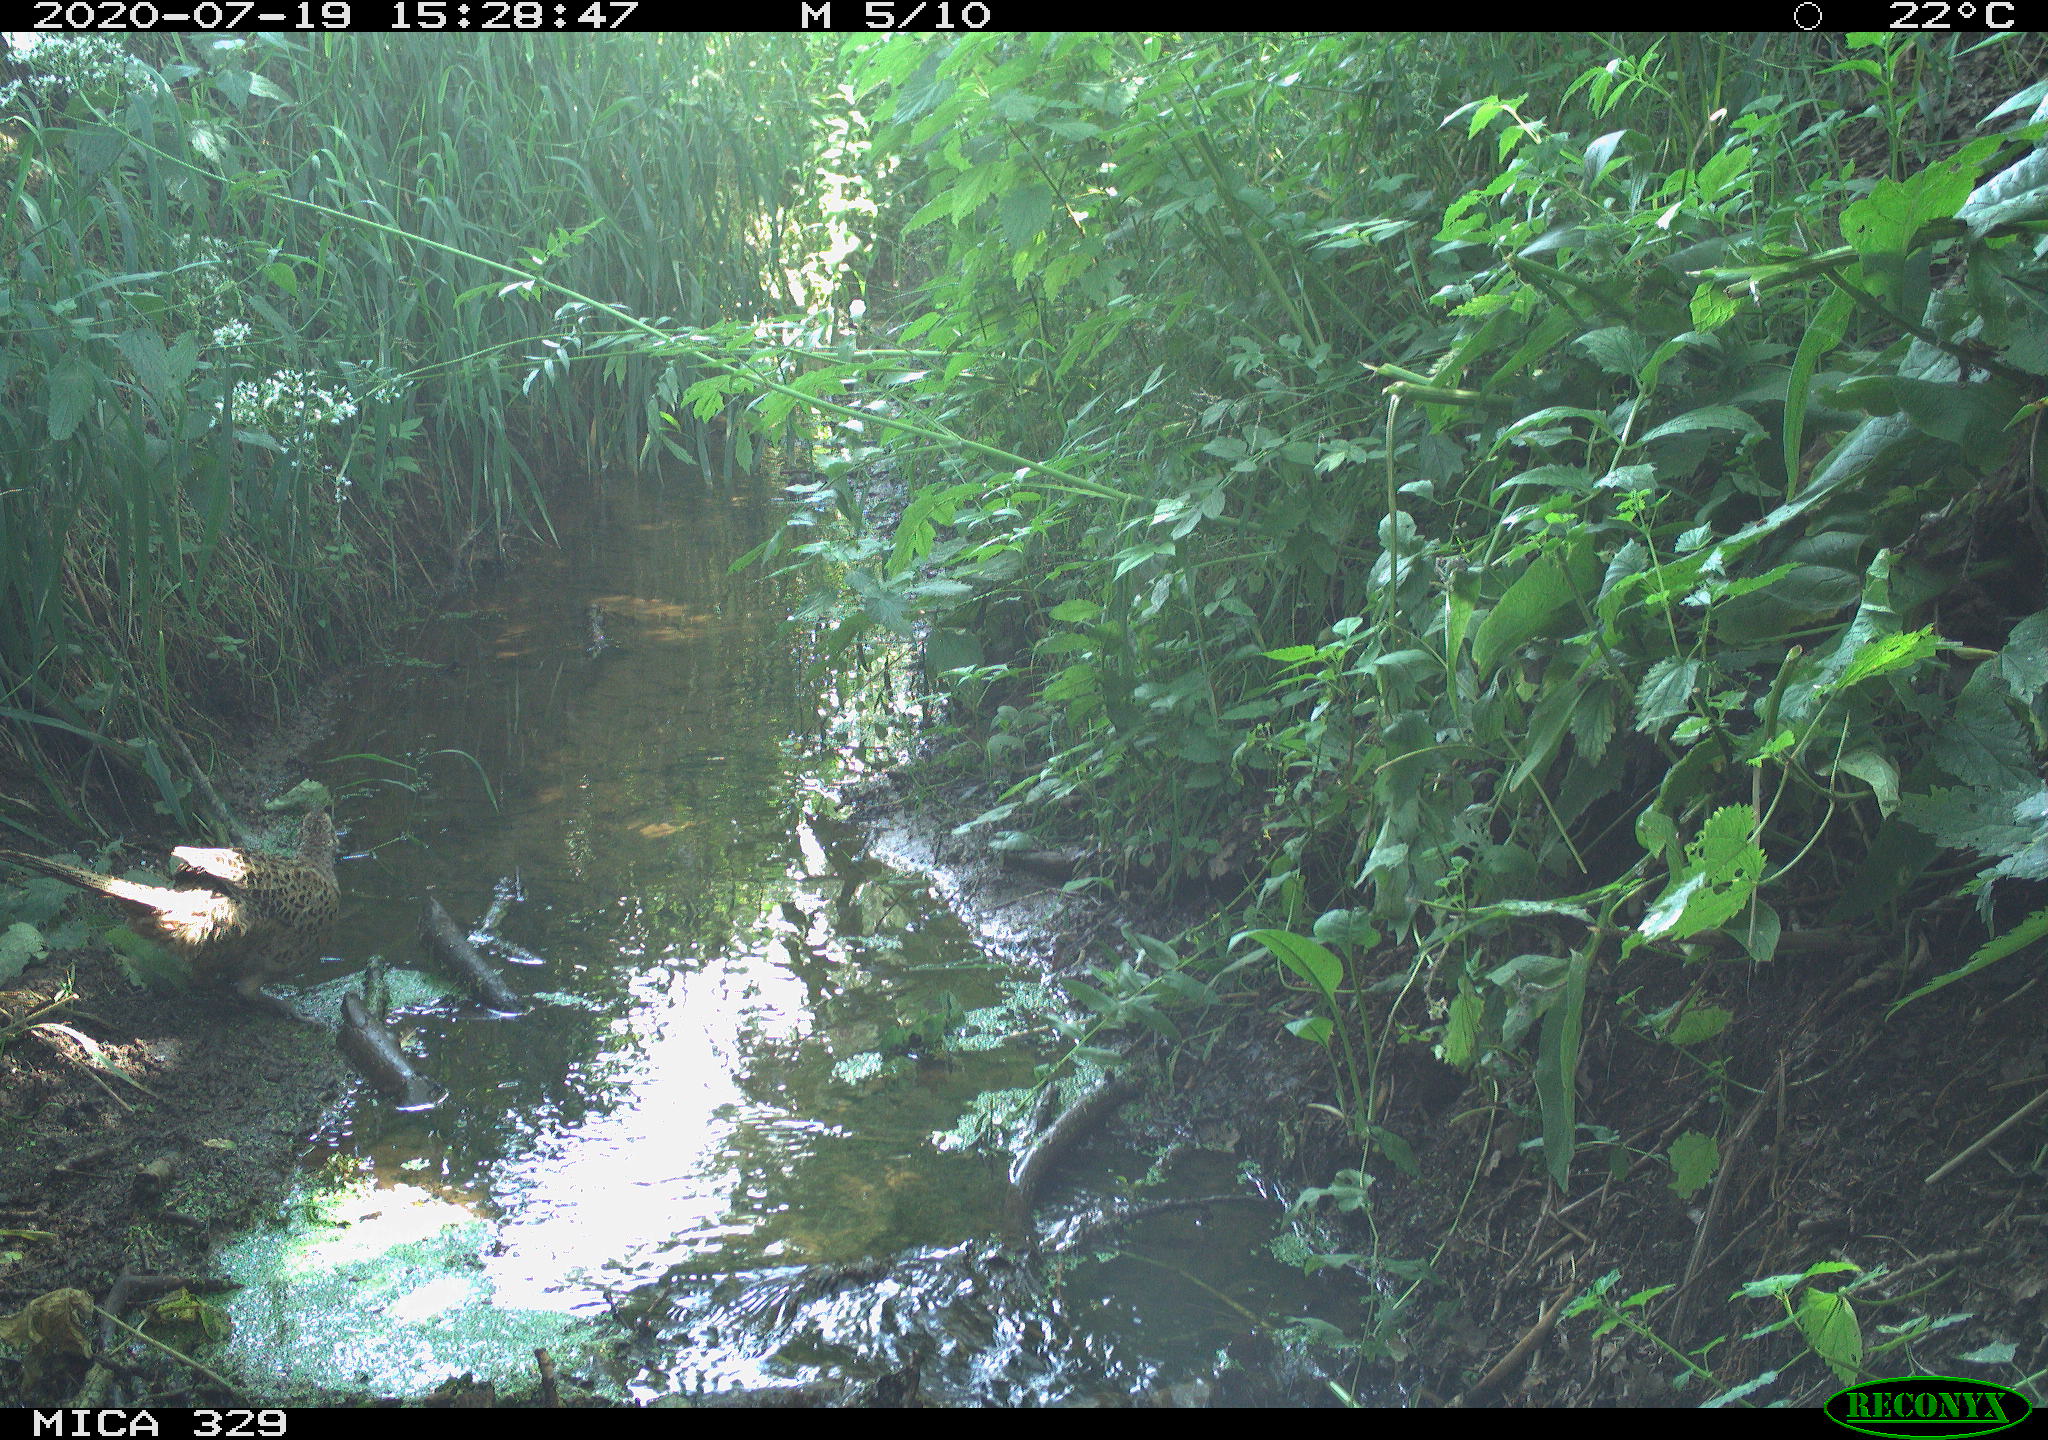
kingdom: Animalia
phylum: Chordata
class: Aves
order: Galliformes
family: Phasianidae
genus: Phasianus
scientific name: Phasianus colchicus
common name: Common pheasant
